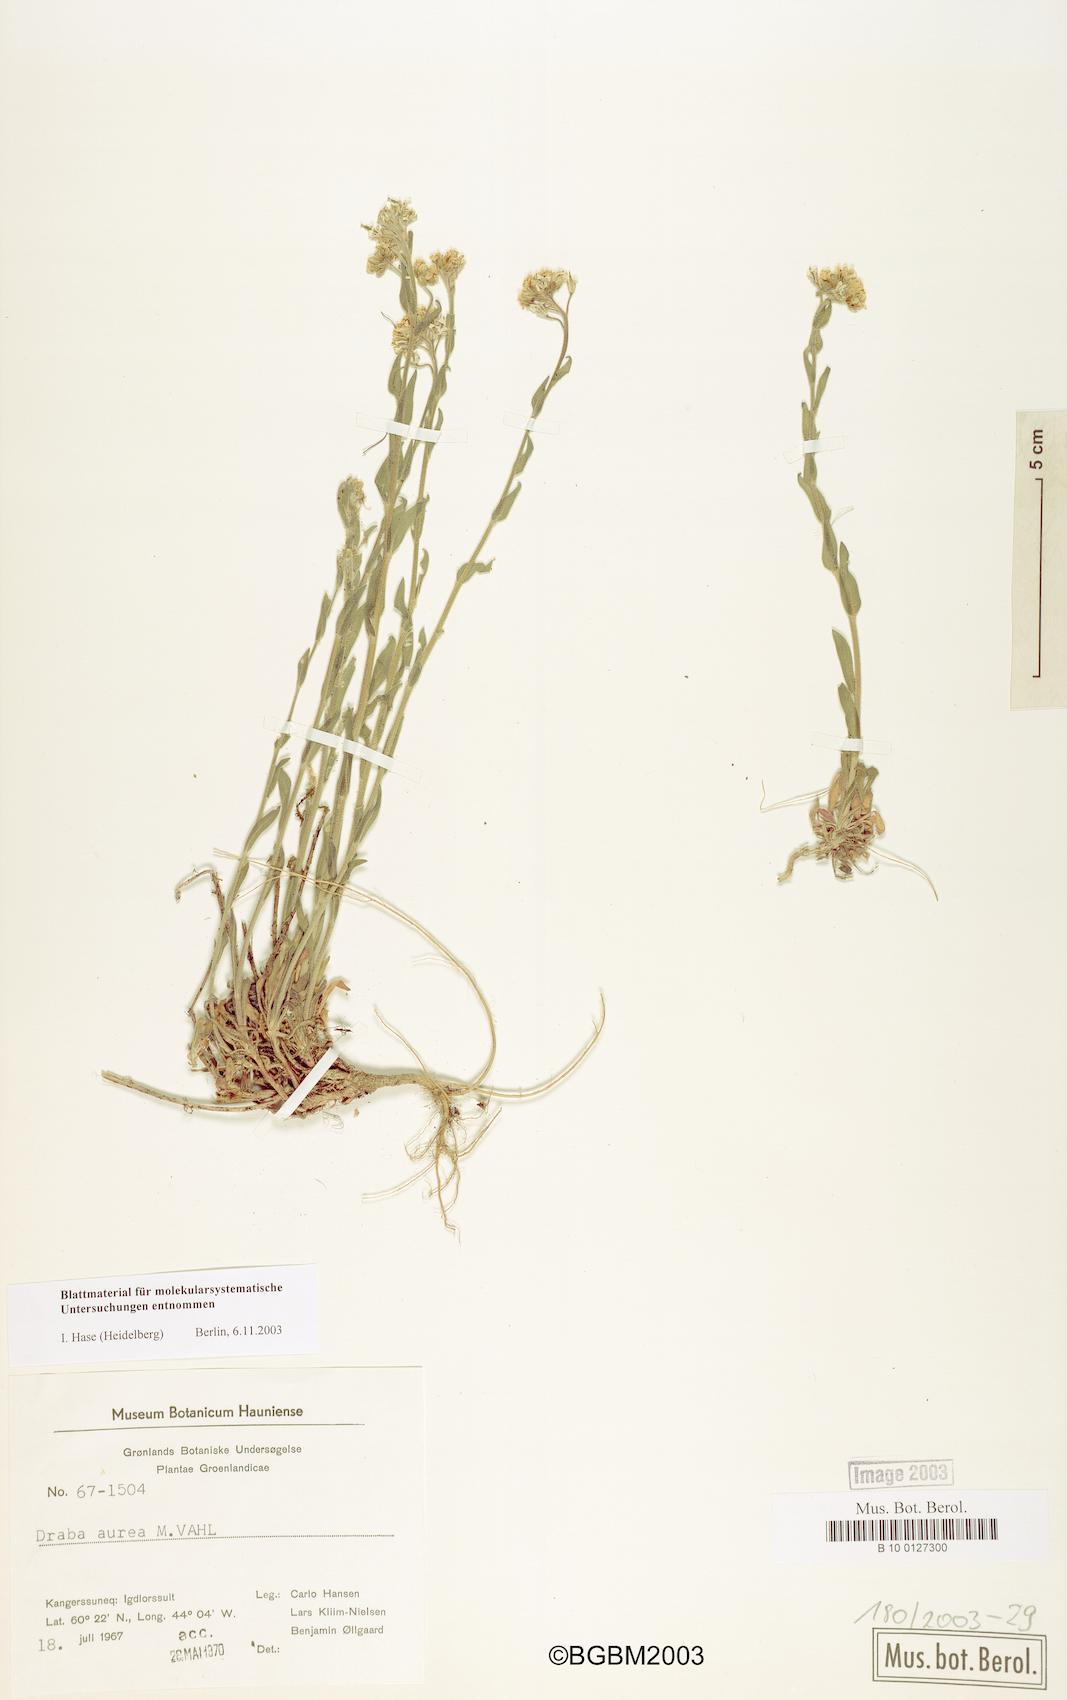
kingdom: Plantae
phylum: Tracheophyta
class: Magnoliopsida
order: Brassicales
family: Brassicaceae
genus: Draba
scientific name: Draba aurea
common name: Golden draba
